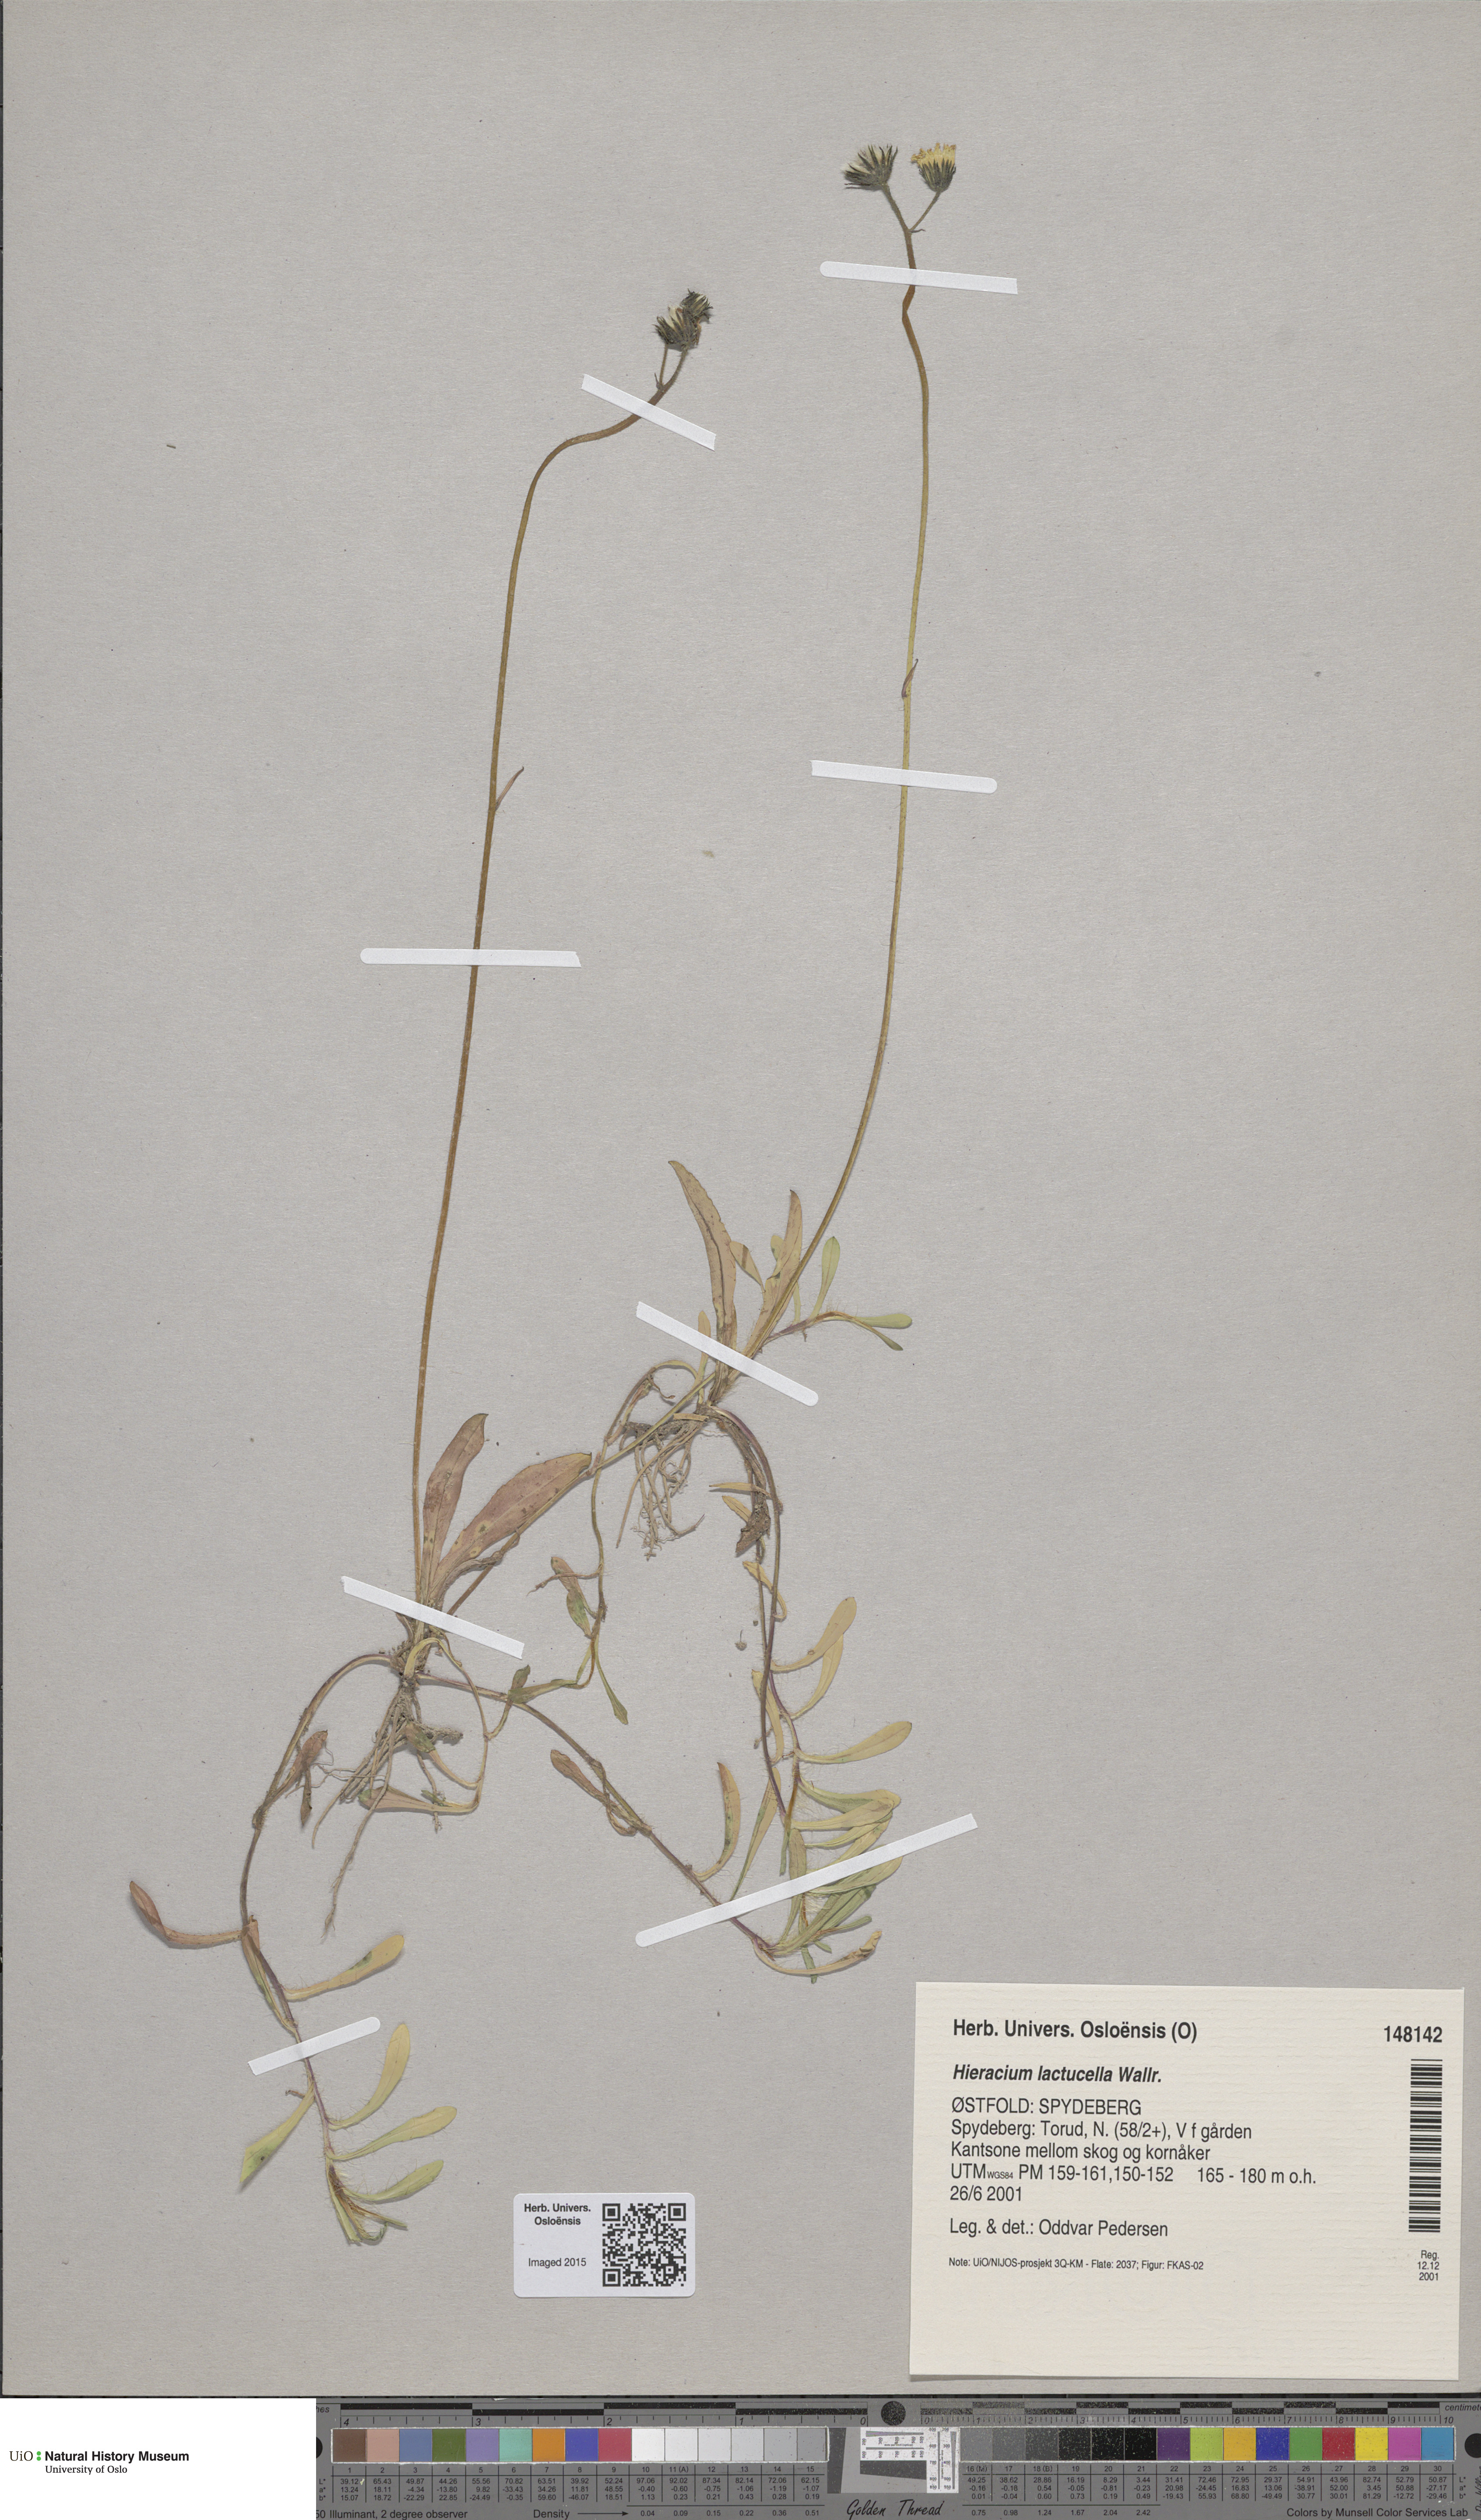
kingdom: Plantae
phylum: Tracheophyta
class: Magnoliopsida
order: Asterales
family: Asteraceae
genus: Pilosella
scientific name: Pilosella lactucella
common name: Glaucous fox-and-cubs
